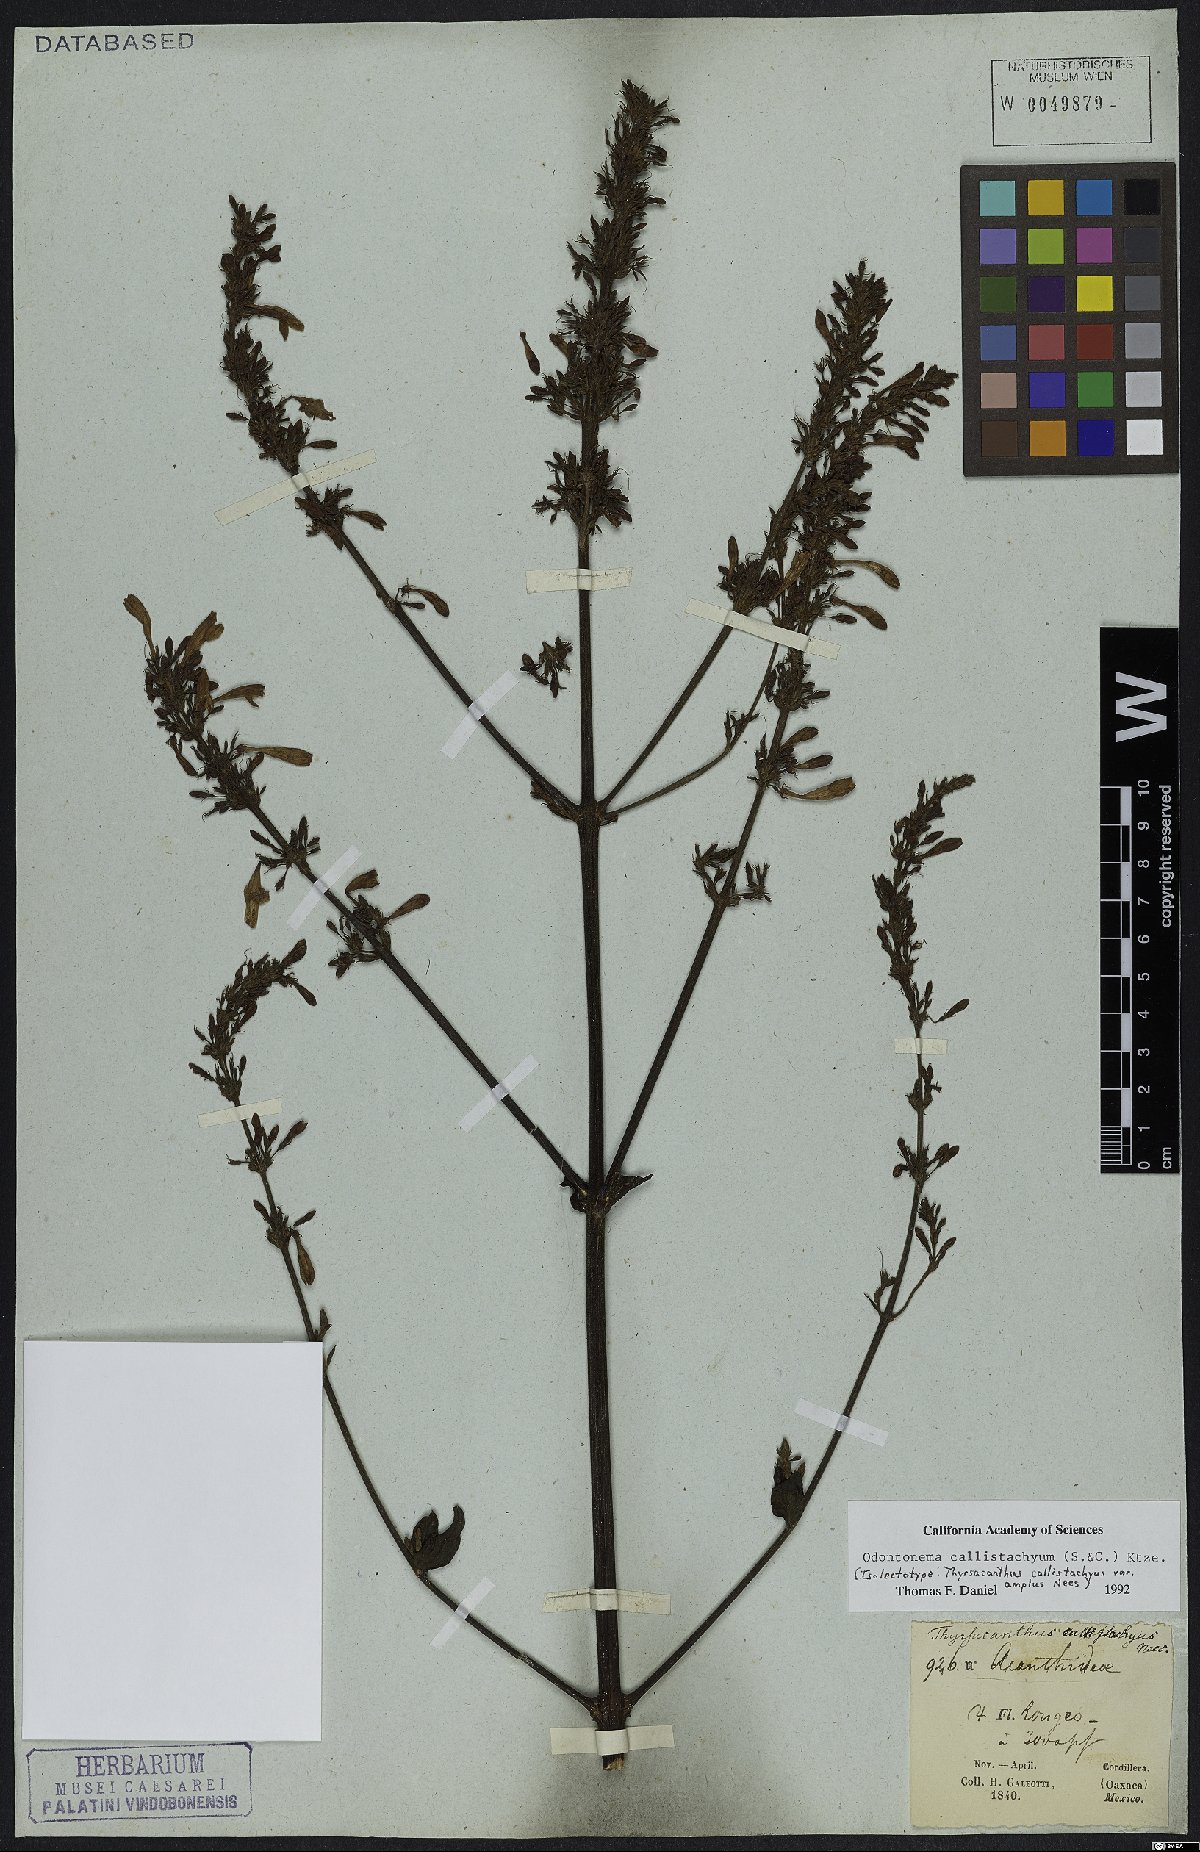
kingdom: Plantae
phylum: Tracheophyta
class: Magnoliopsida
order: Lamiales
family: Acanthaceae
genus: Odontonema
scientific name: Odontonema callistachyum
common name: Firespike
